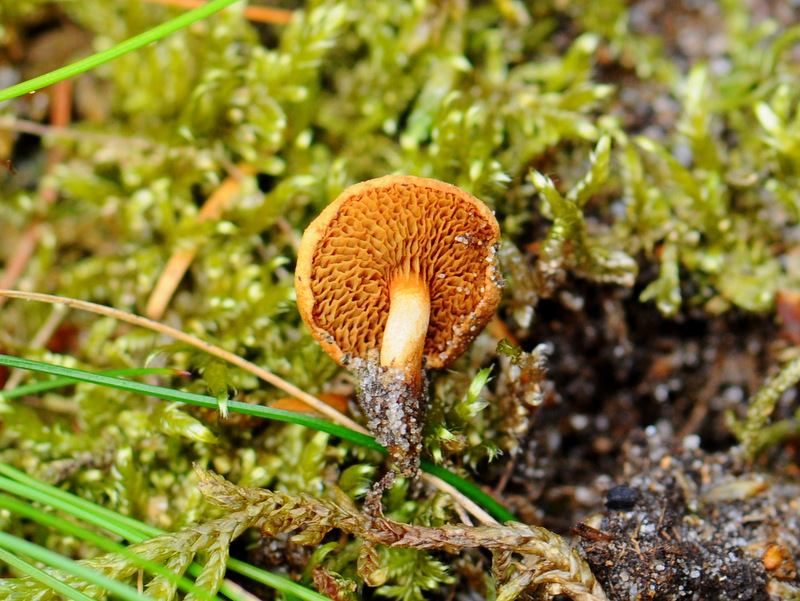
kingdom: Fungi
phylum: Basidiomycota
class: Agaricomycetes
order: Boletales
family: Boletaceae
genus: Chalciporus
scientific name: Chalciporus piperatus
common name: peberrørhat
